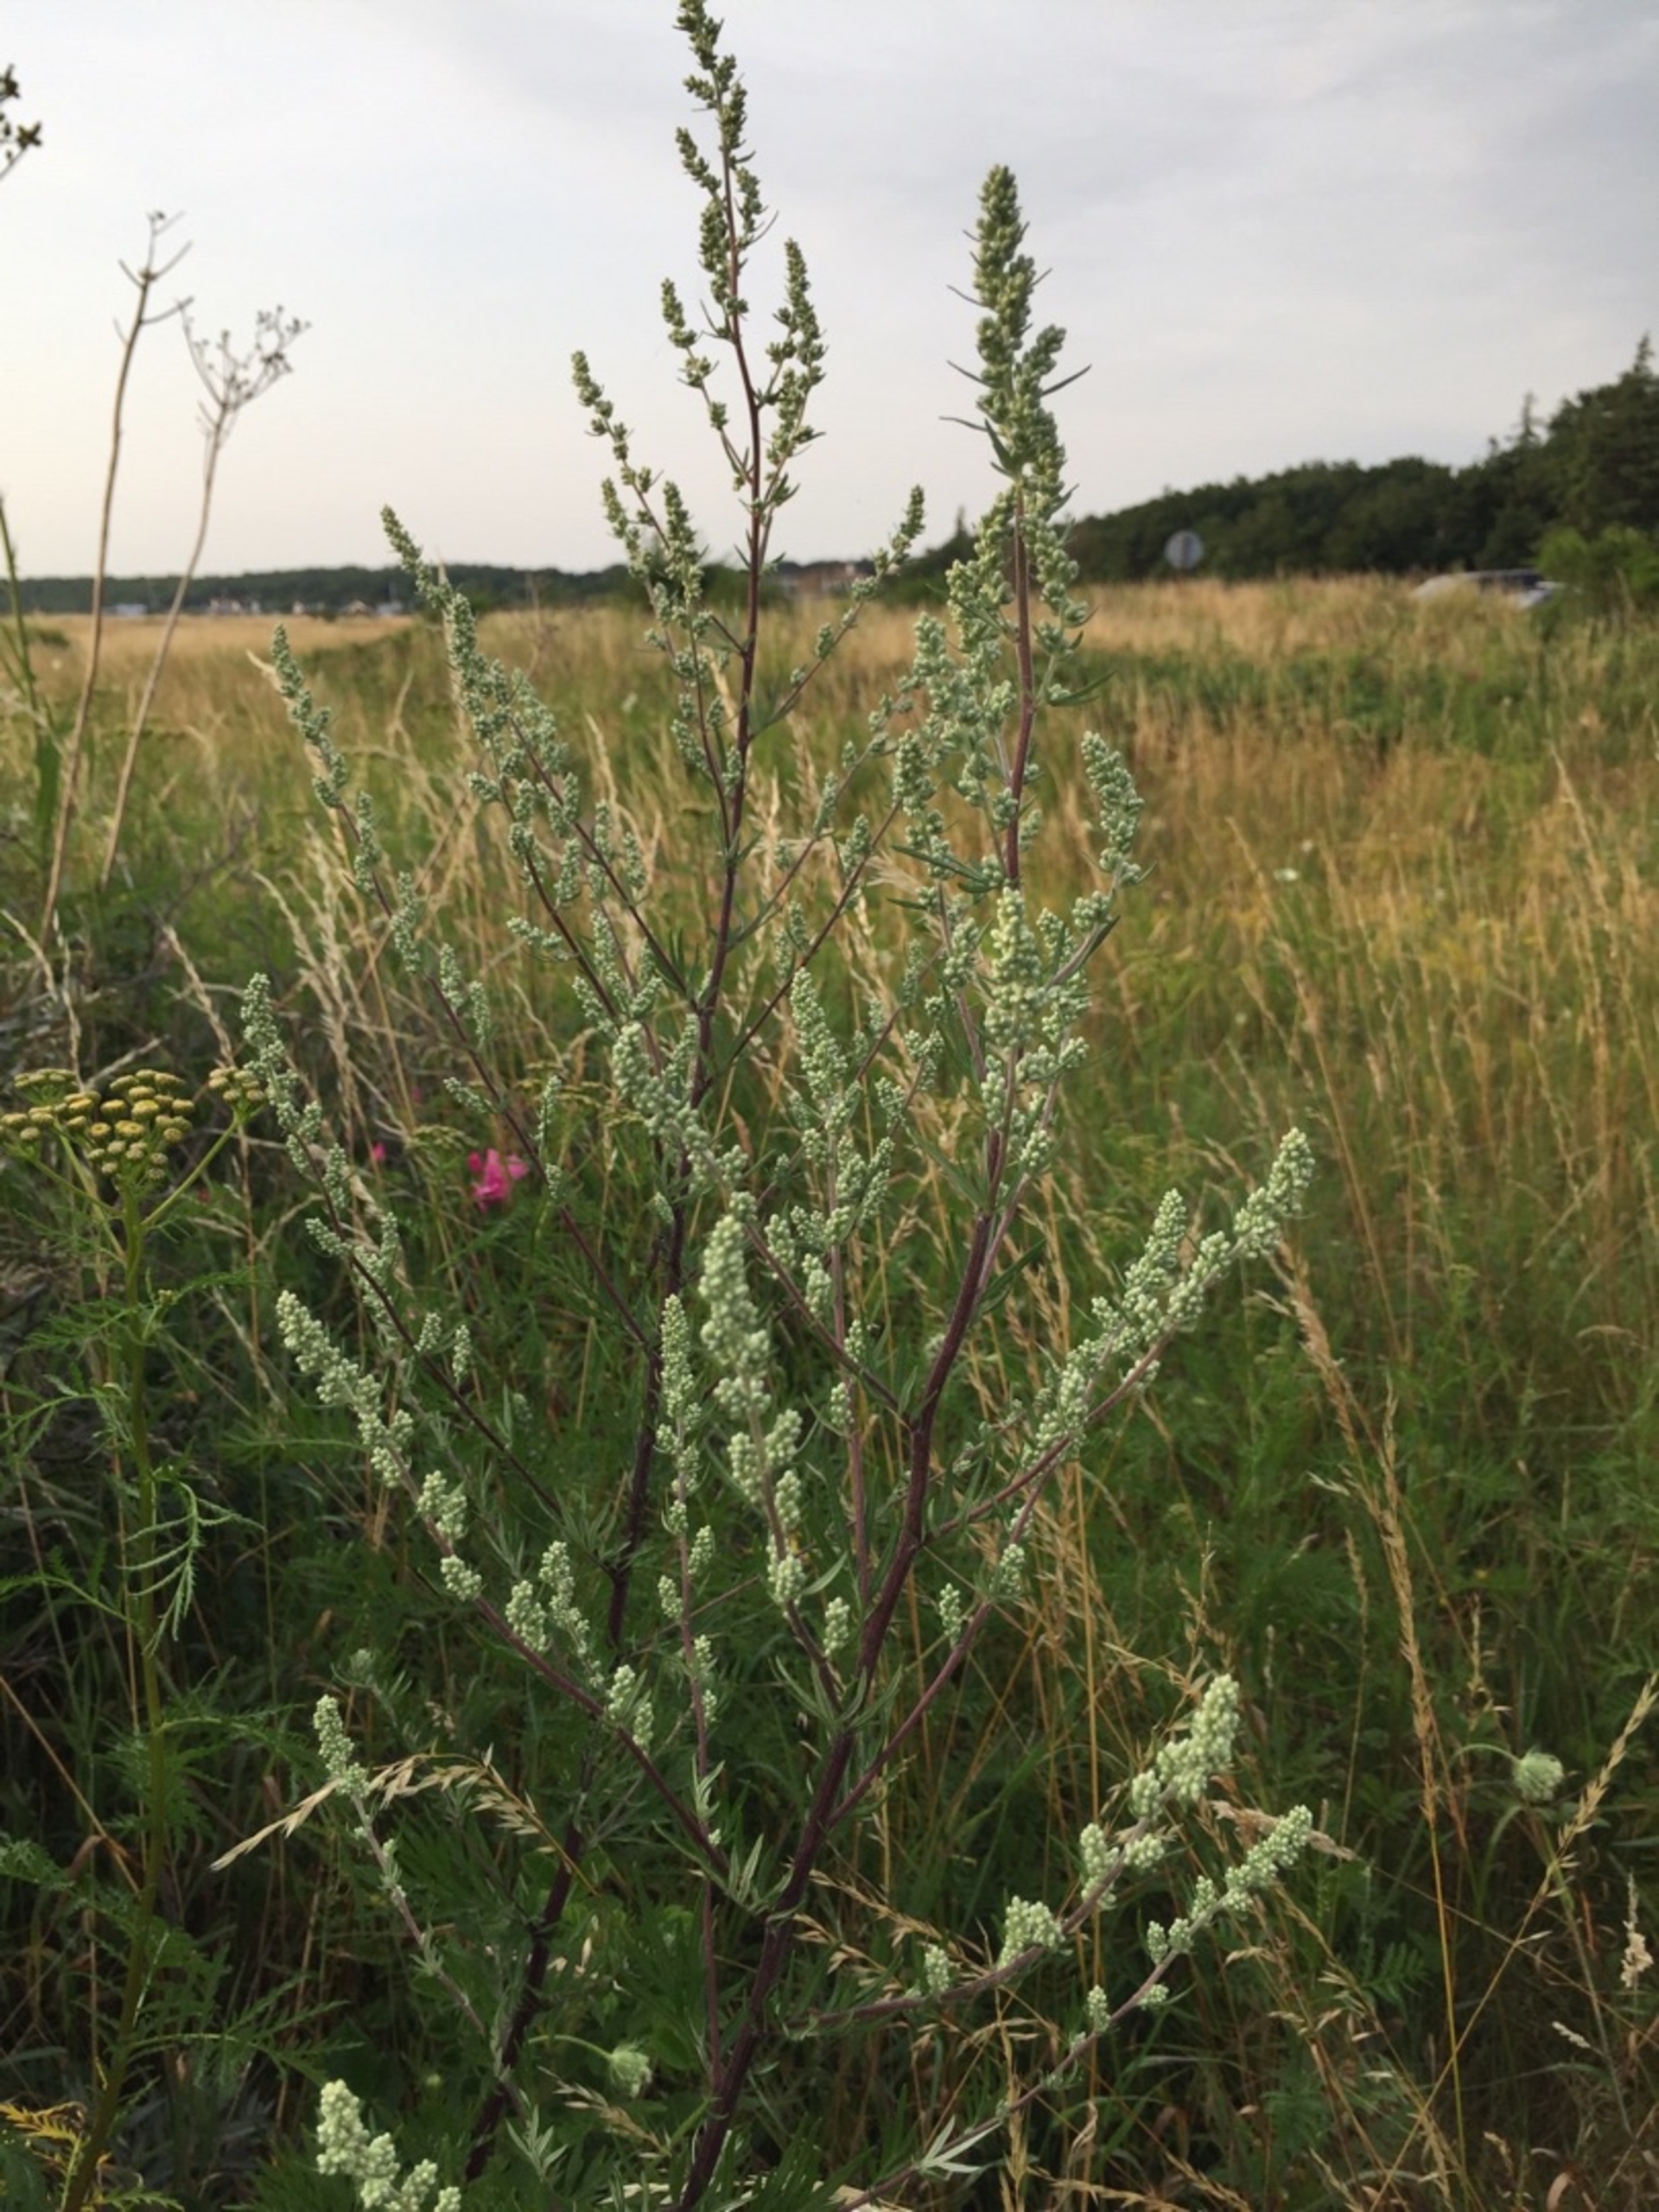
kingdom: Plantae
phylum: Tracheophyta
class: Magnoliopsida
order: Asterales
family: Asteraceae
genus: Artemisia
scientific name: Artemisia vulgaris
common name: Grå-bynke
